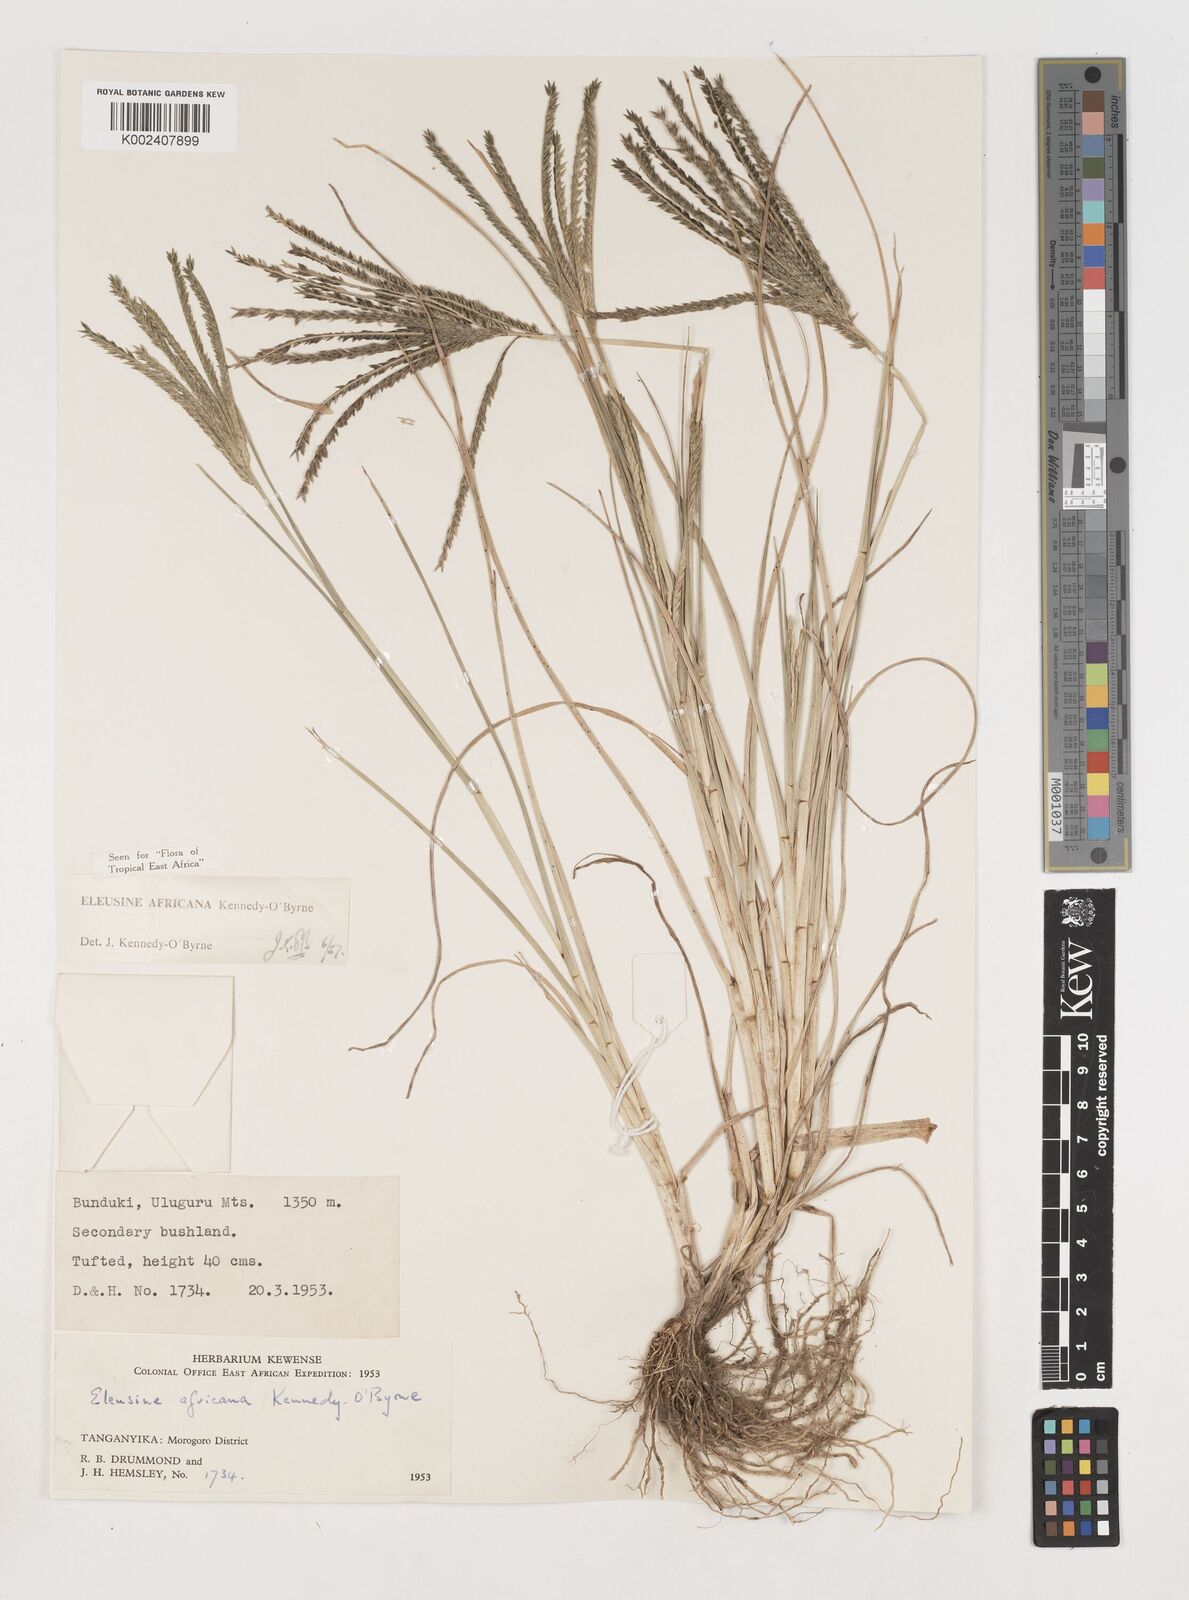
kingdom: Plantae
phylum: Tracheophyta
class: Liliopsida
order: Poales
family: Poaceae
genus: Eleusine
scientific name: Eleusine africana
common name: Wild african finger millet
